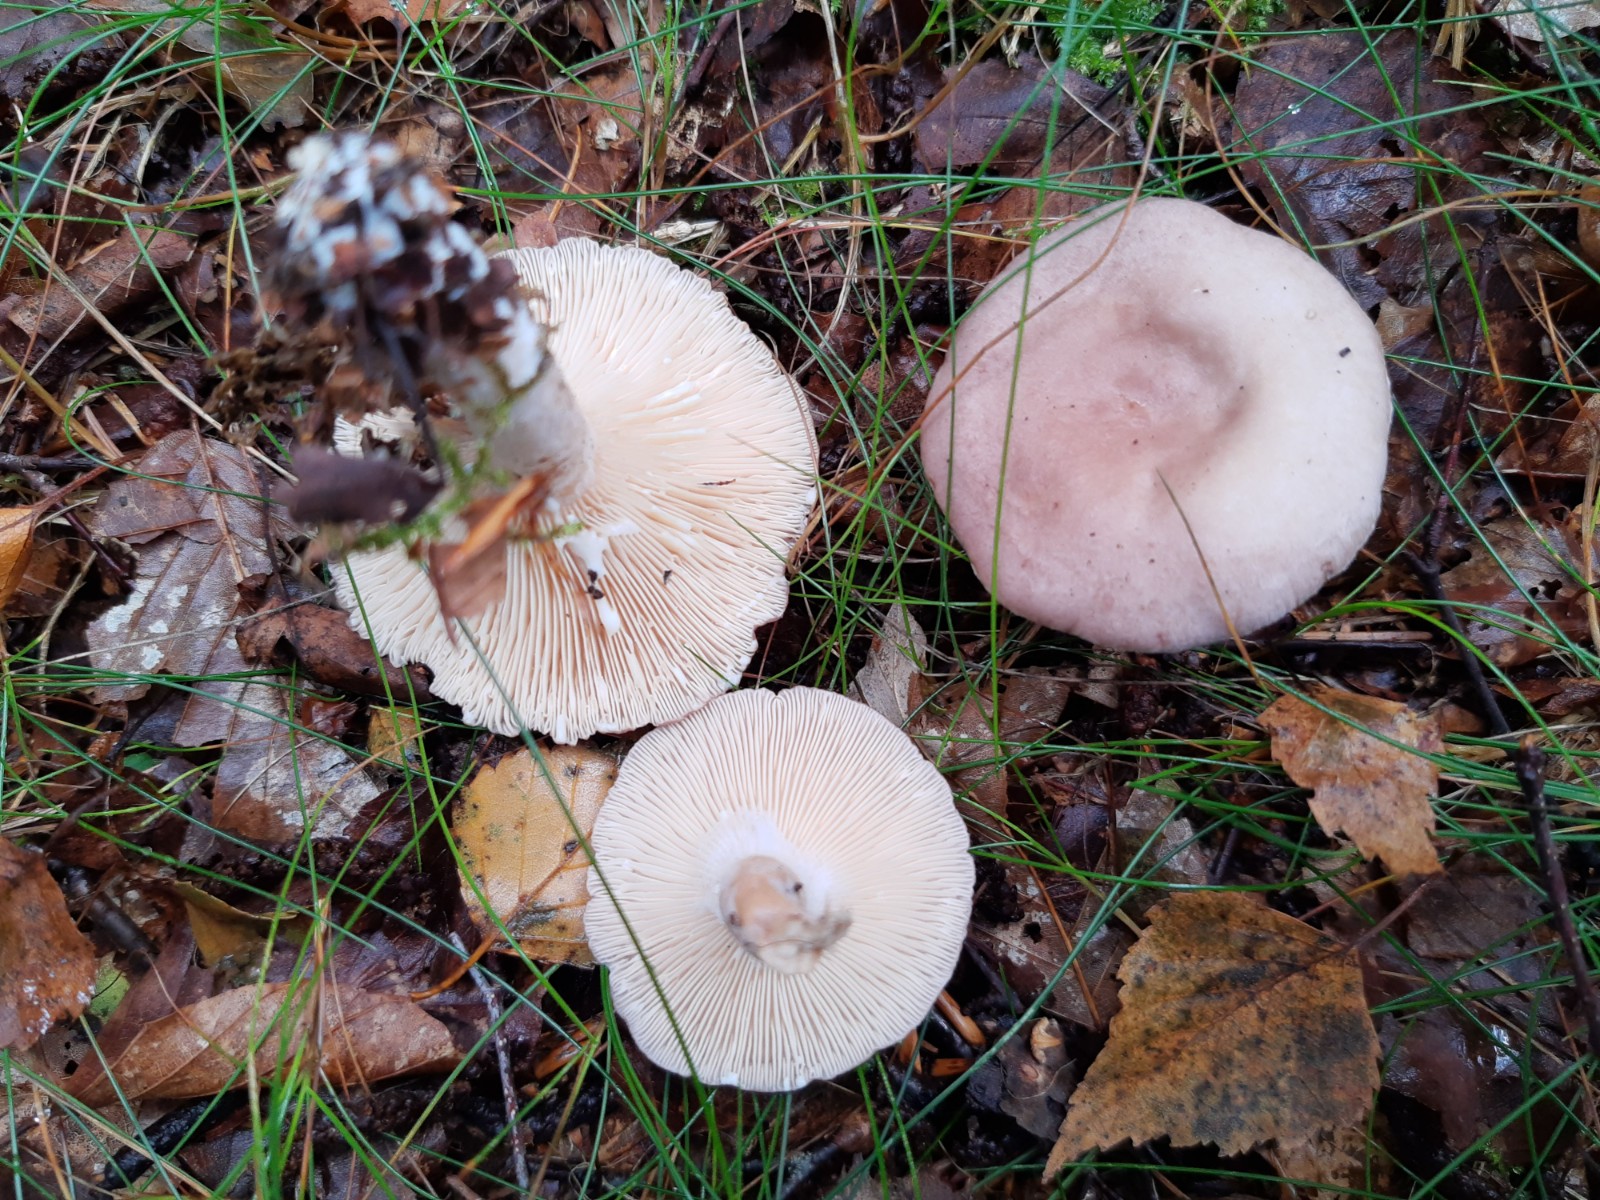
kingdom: Fungi
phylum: Basidiomycota
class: Agaricomycetes
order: Russulales
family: Russulaceae
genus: Lactarius
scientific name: Lactarius vietus
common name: violetgrå mælkehat
